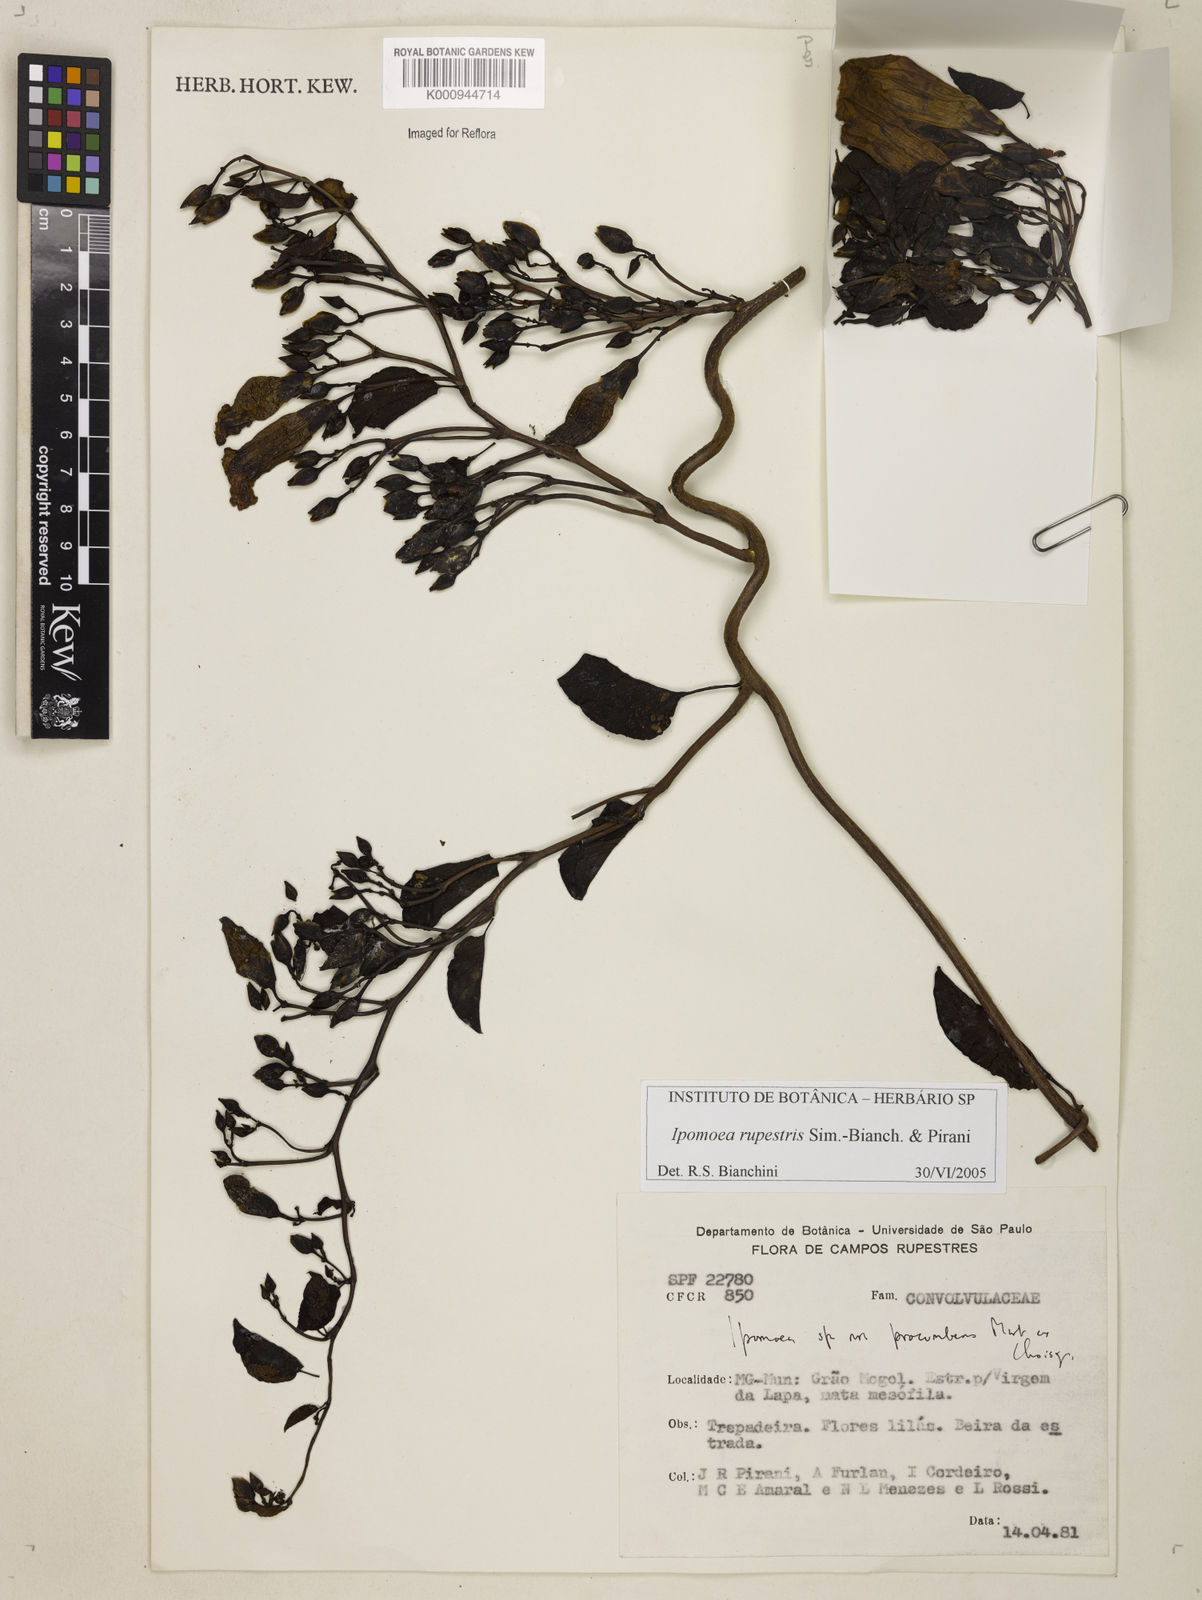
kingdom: Plantae
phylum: Tracheophyta
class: Magnoliopsida
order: Solanales
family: Convolvulaceae
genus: Ipomoea
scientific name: Ipomoea rupestris
